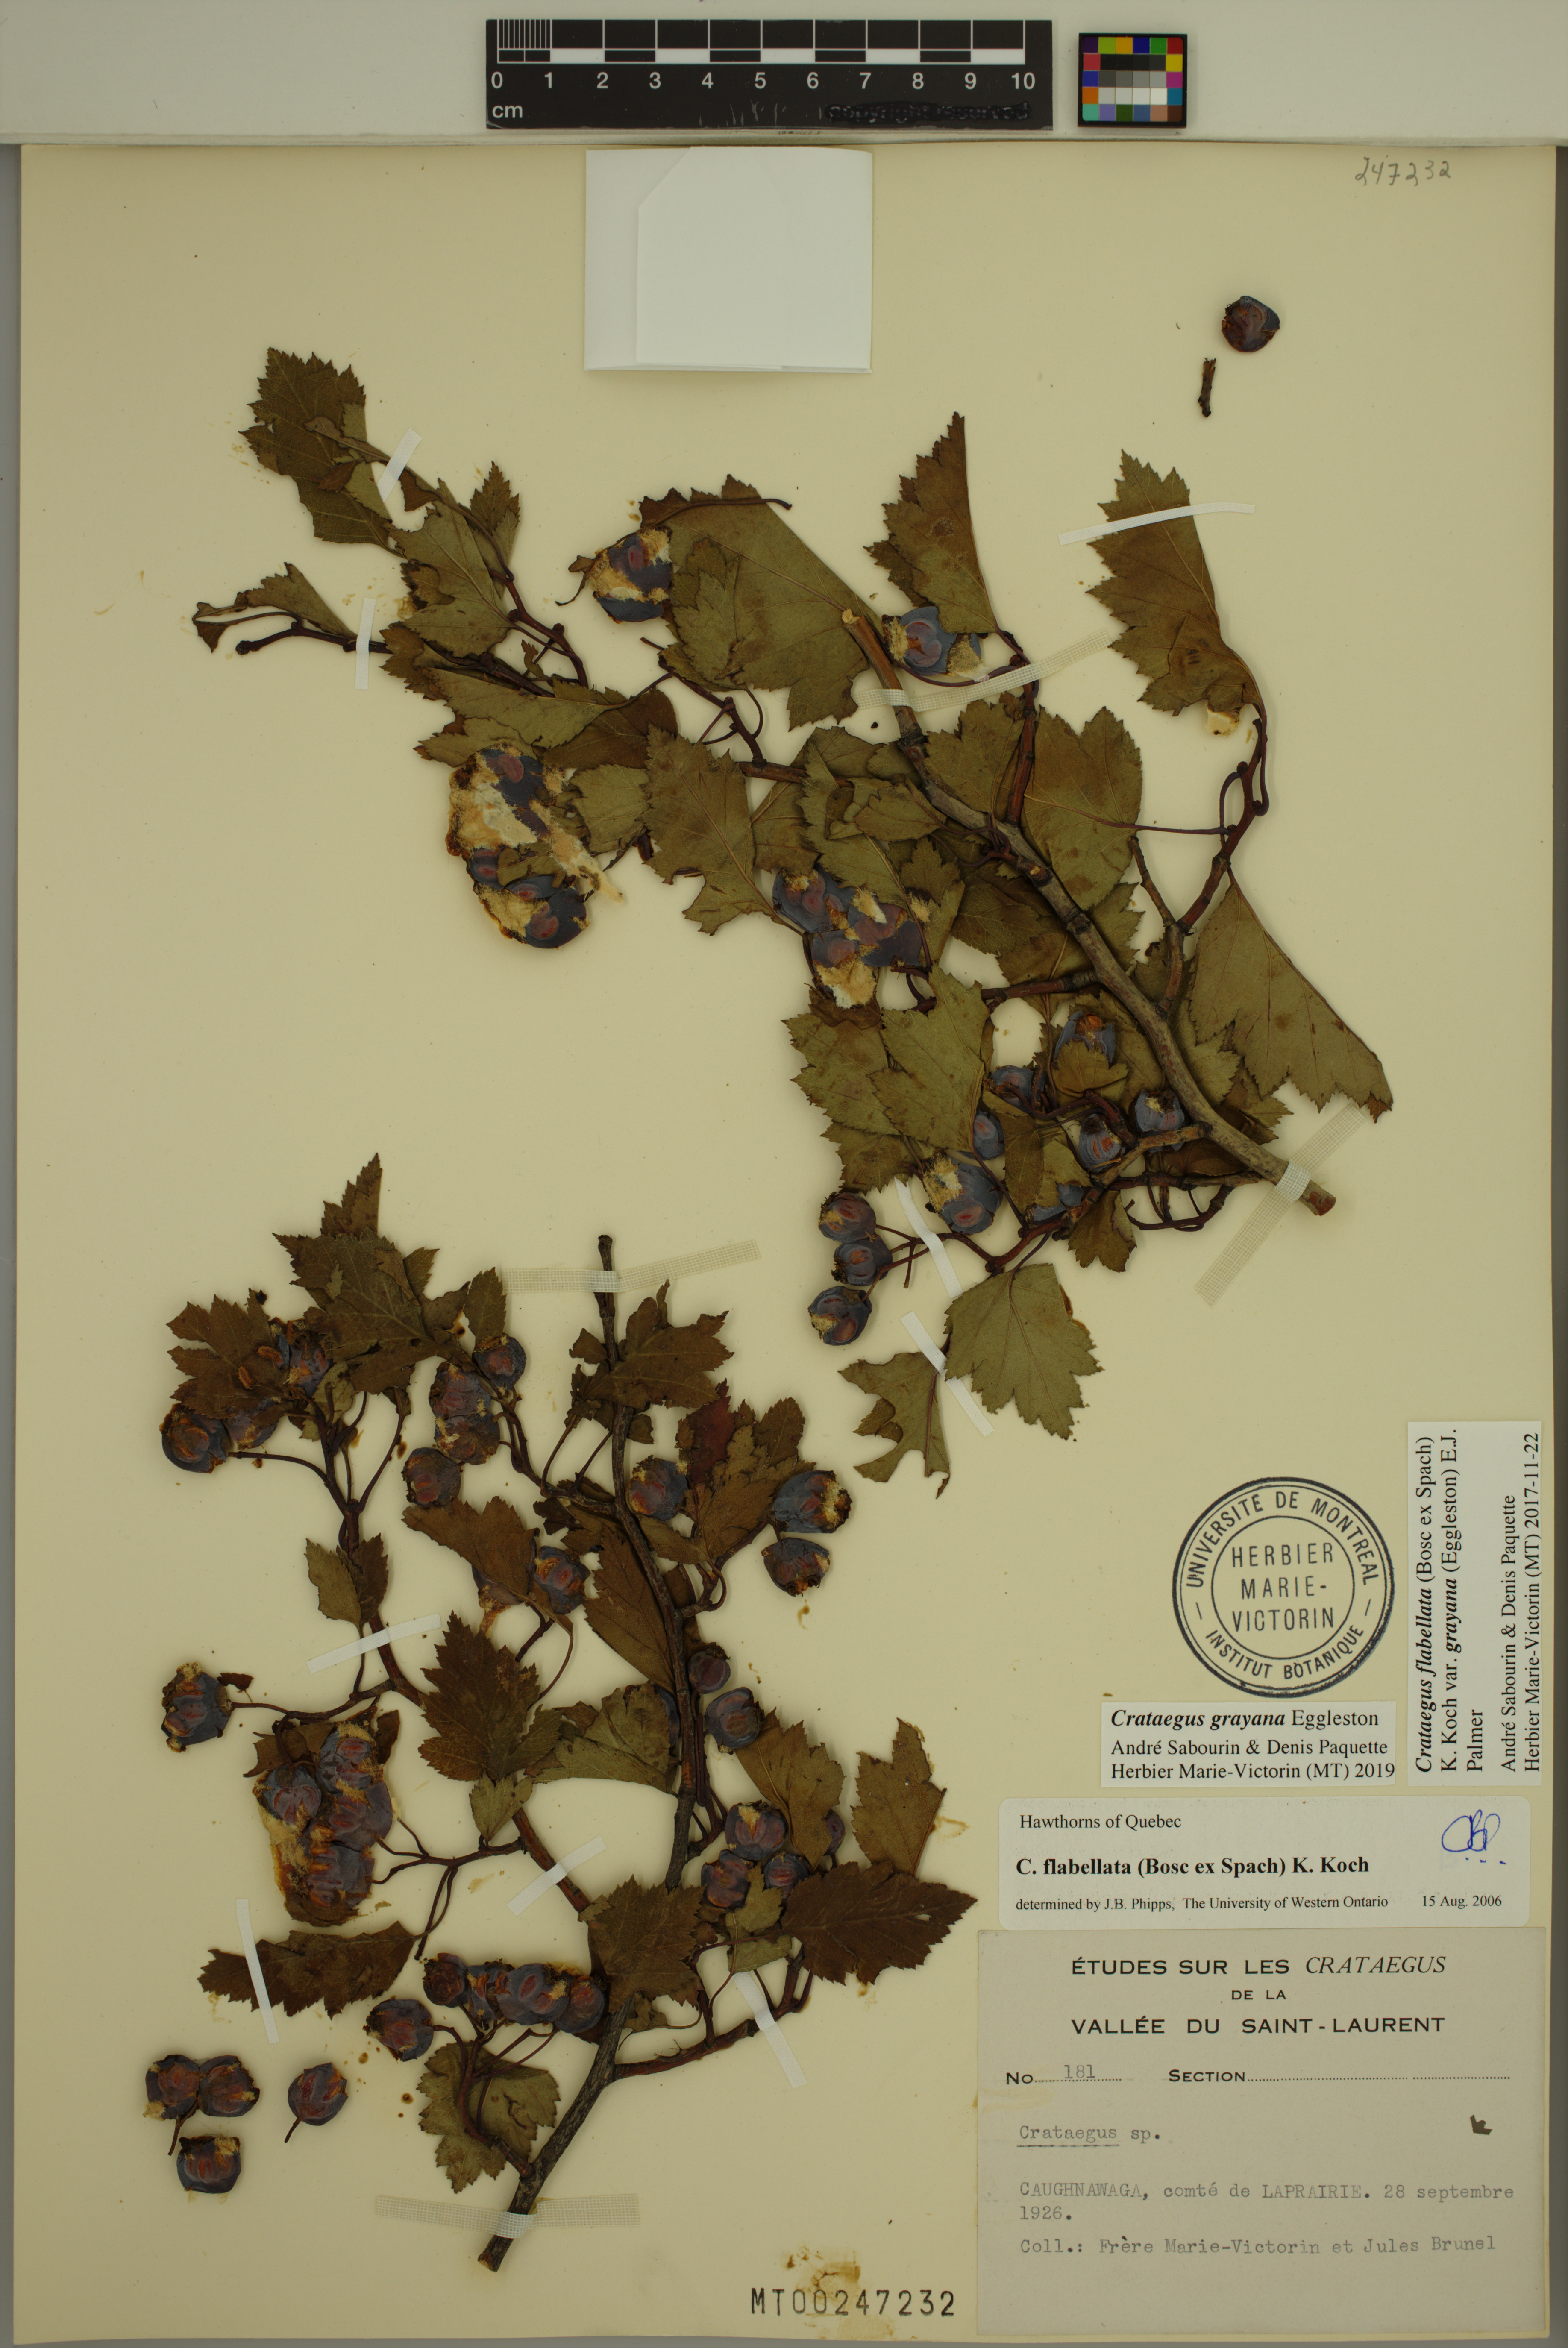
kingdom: Plantae
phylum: Tracheophyta
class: Magnoliopsida
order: Rosales
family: Rosaceae
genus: Crataegus
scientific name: Crataegus schuettei
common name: Schuette's hawthorn
